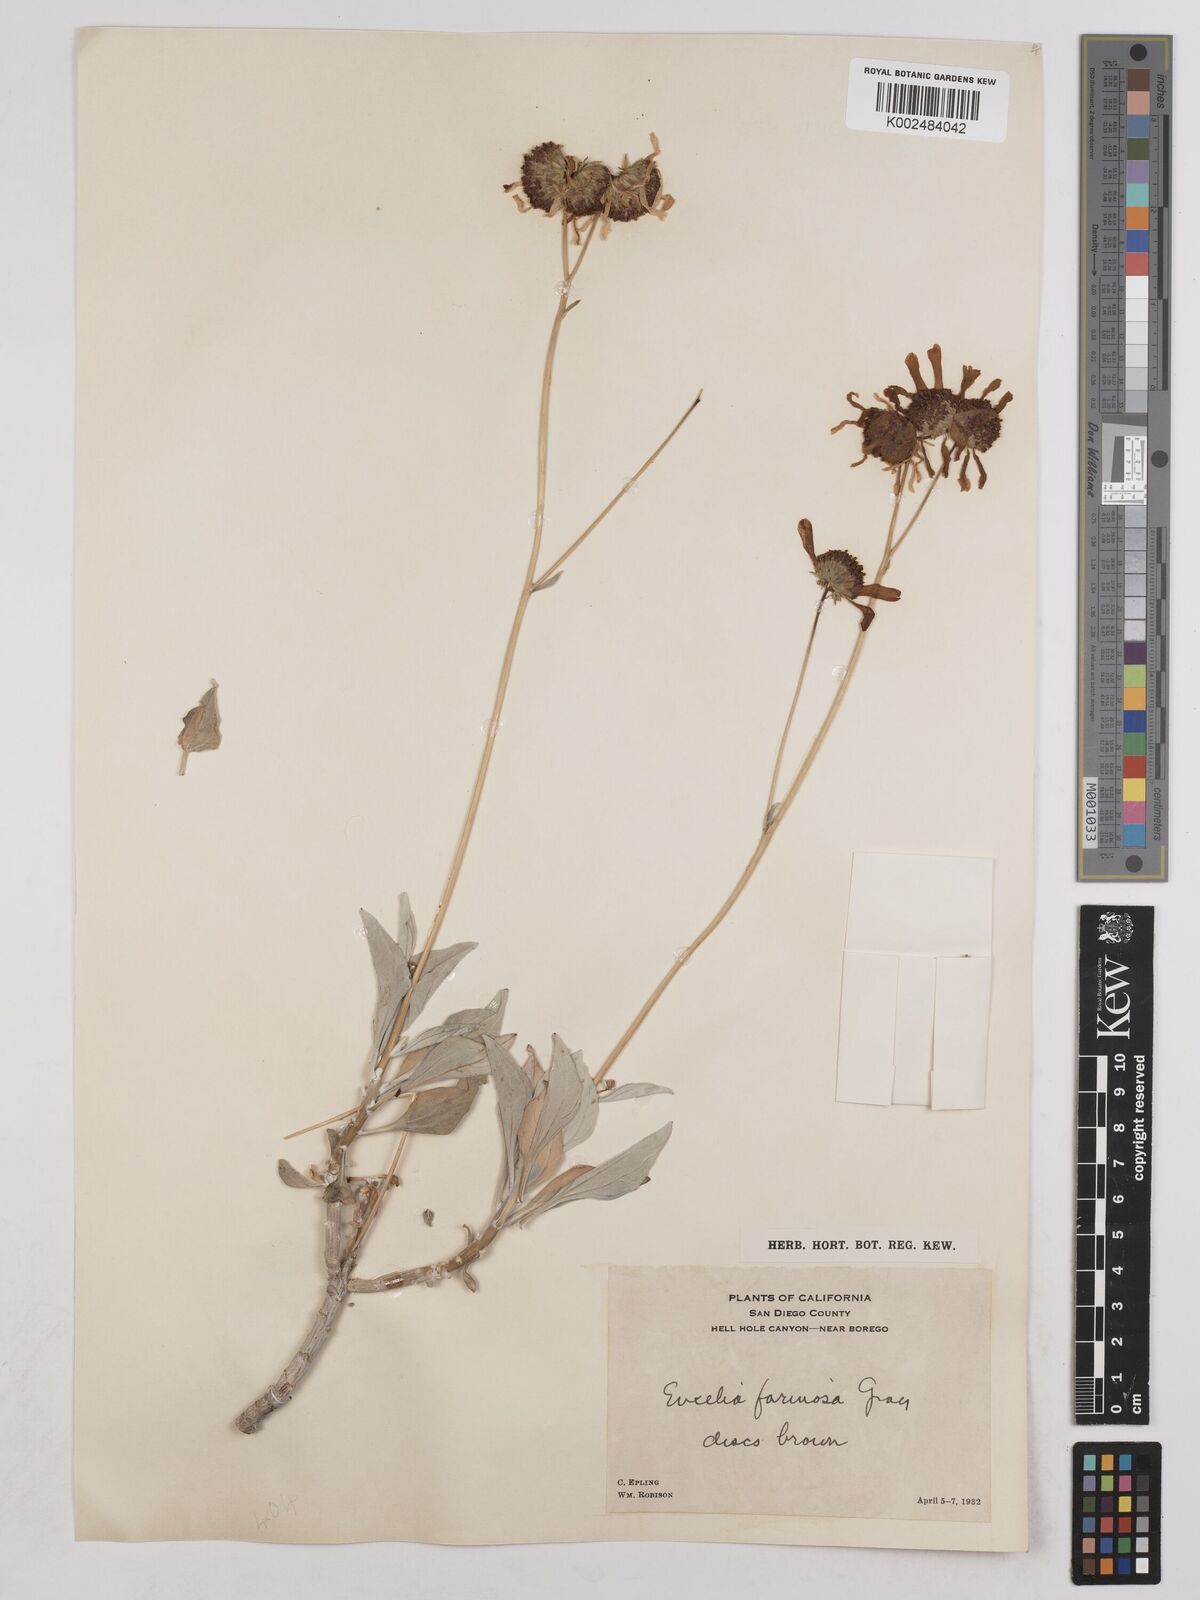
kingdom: Plantae
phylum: Tracheophyta
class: Magnoliopsida
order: Asterales
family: Asteraceae
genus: Encelia
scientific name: Encelia farinosa
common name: Brittlebush
